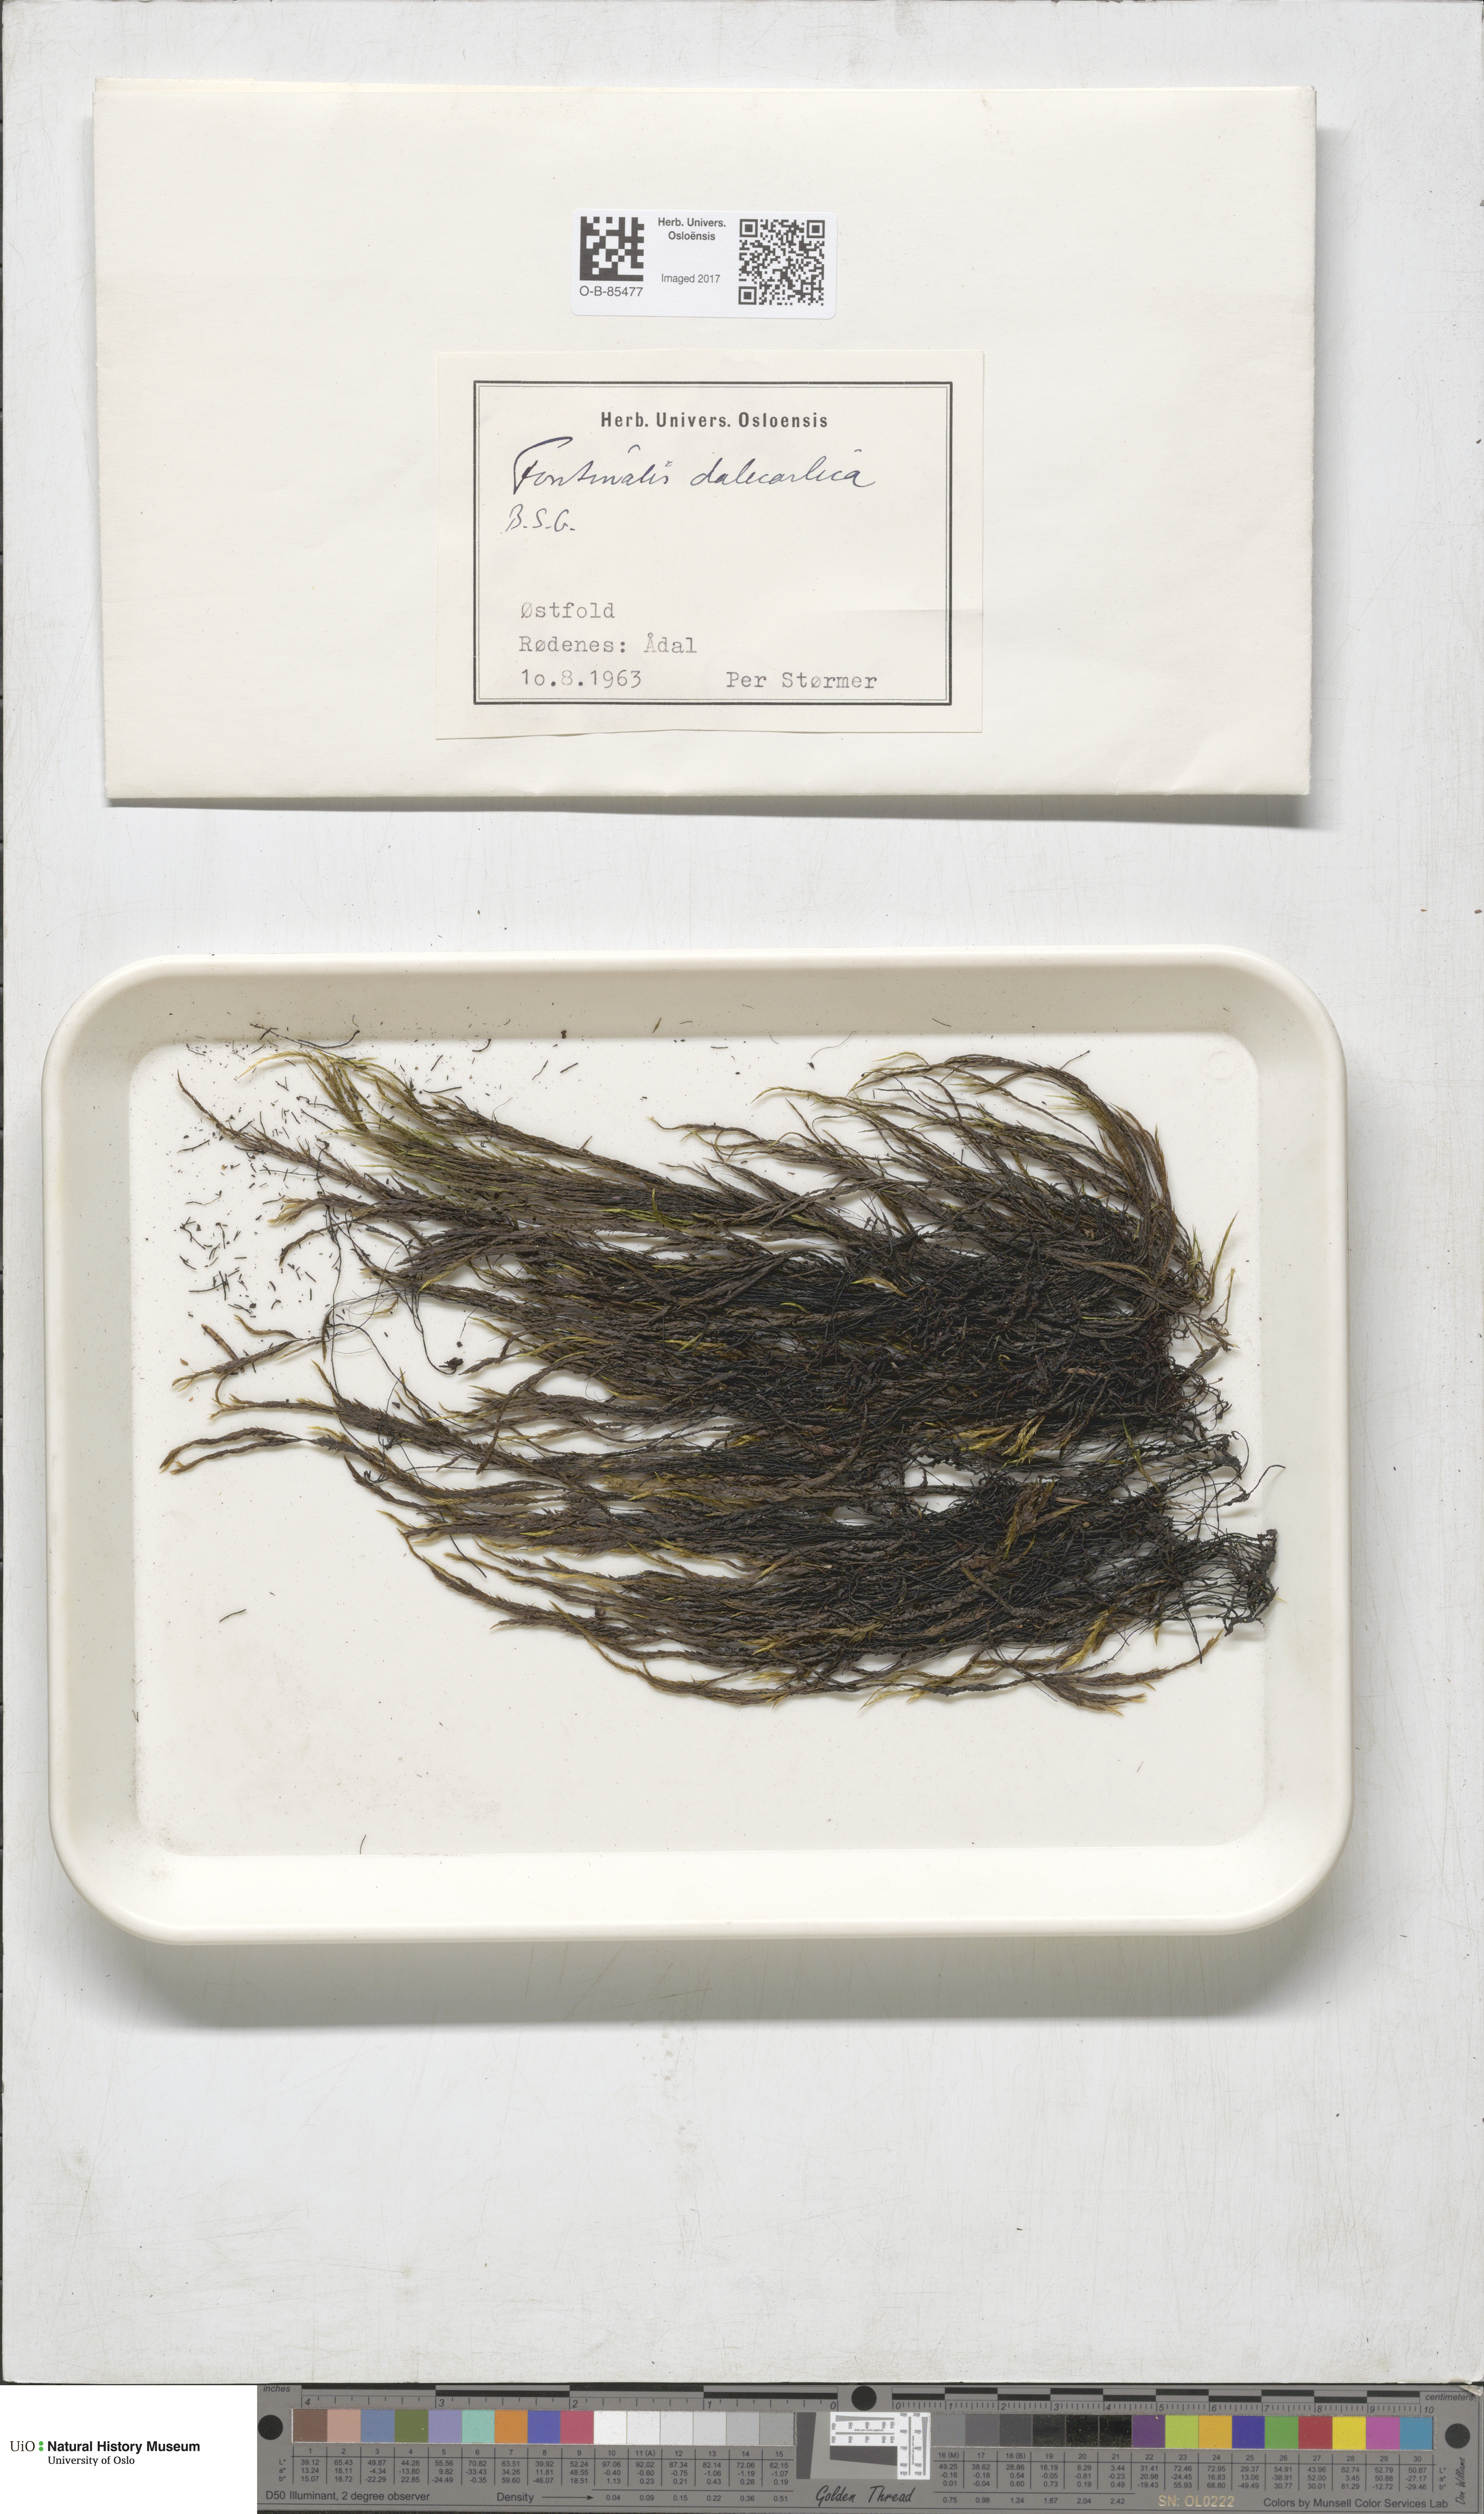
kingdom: Plantae
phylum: Bryophyta
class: Bryopsida
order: Hypnales
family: Fontinalaceae
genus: Fontinalis
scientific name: Fontinalis dalecarlica
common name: Slender water moss
